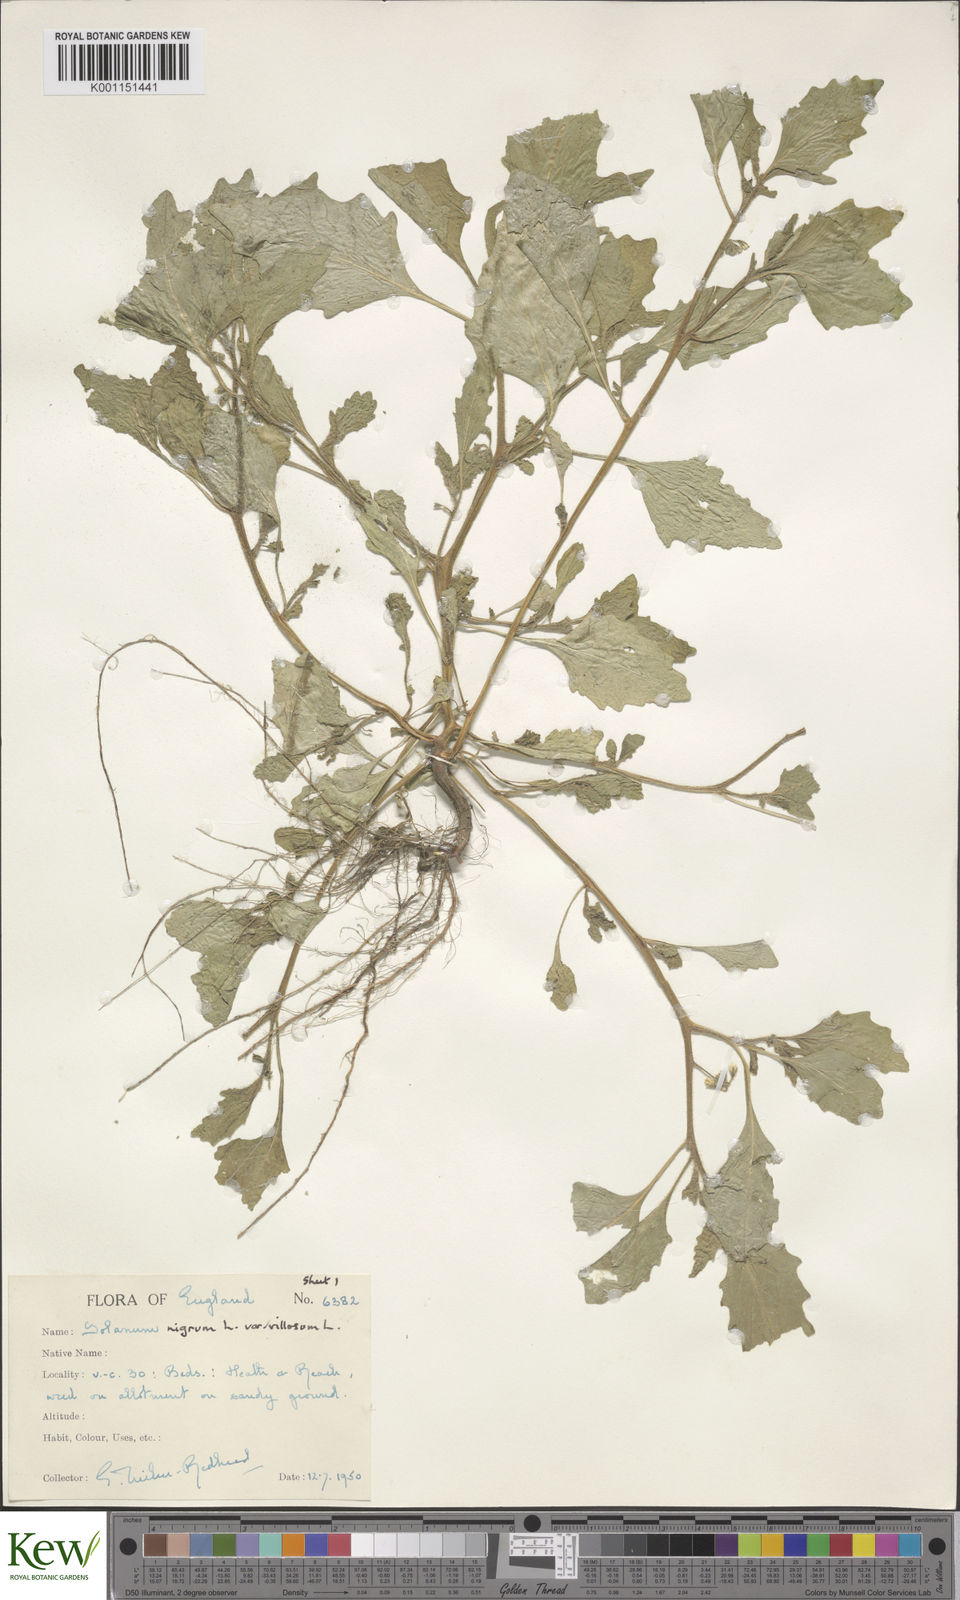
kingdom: Plantae
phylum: Tracheophyta
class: Magnoliopsida
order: Solanales
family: Solanaceae
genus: Solanum
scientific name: Solanum villosum
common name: Red nightshade
